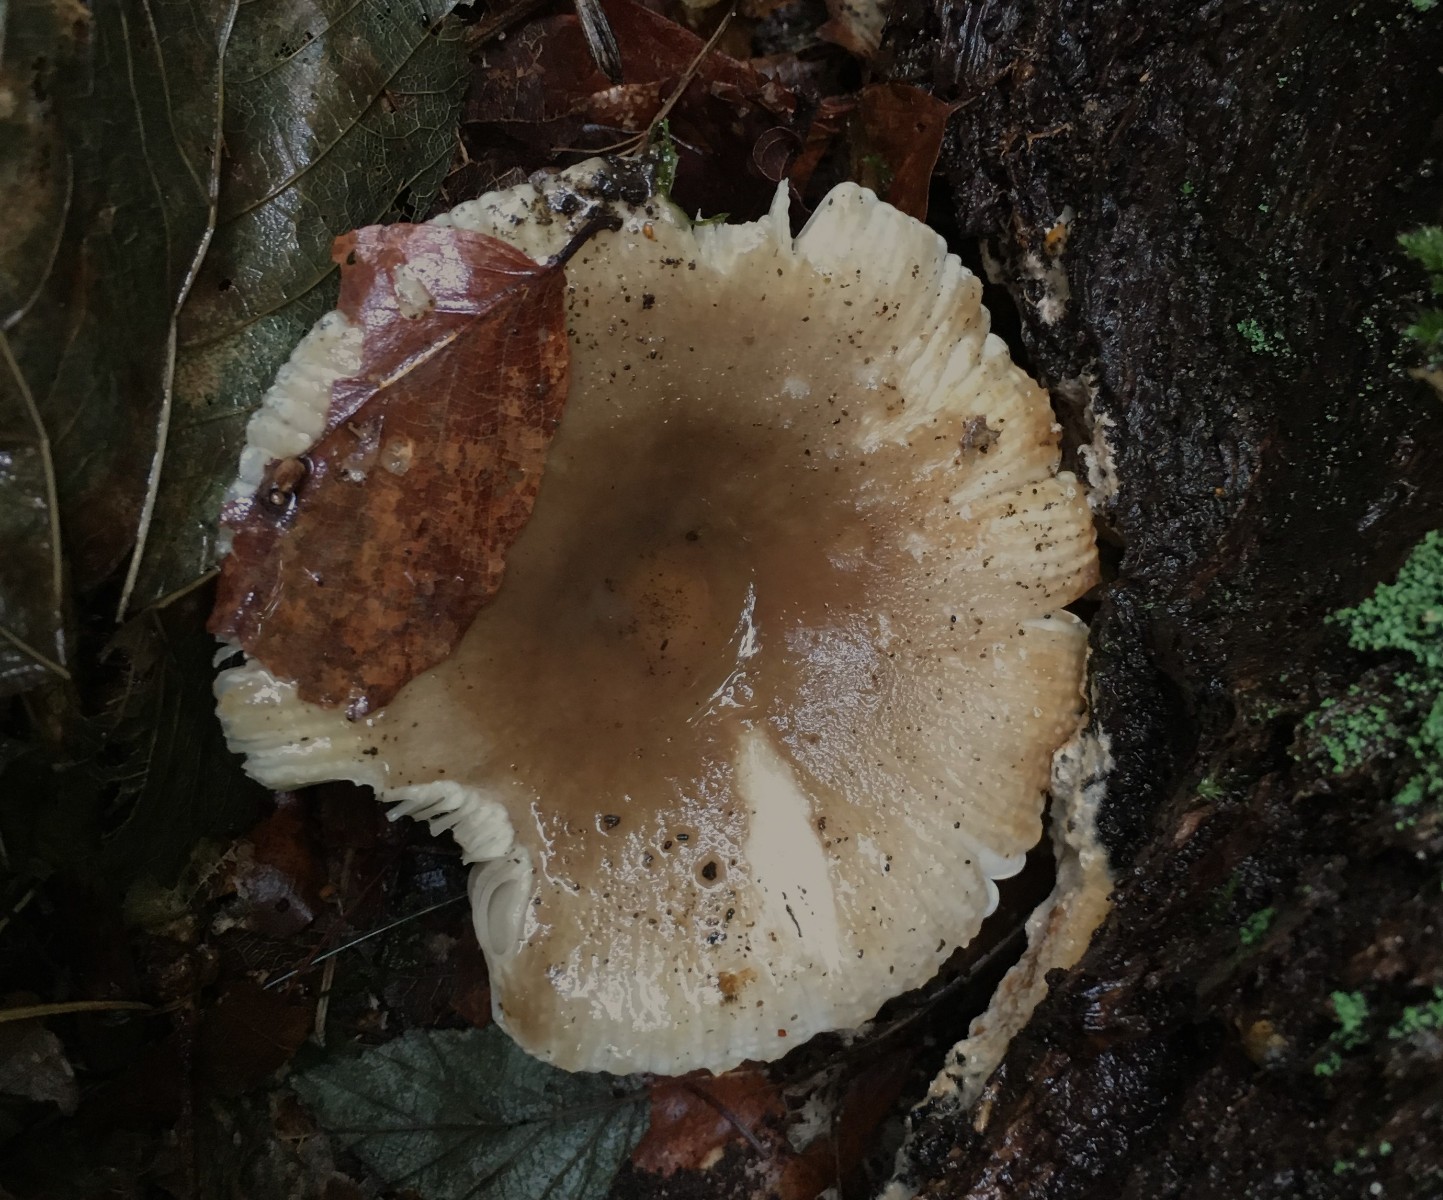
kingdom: Fungi
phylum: Basidiomycota
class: Agaricomycetes
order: Russulales
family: Russulaceae
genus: Russula
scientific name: Russula amoenolens
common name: skarp kam-skørhat
